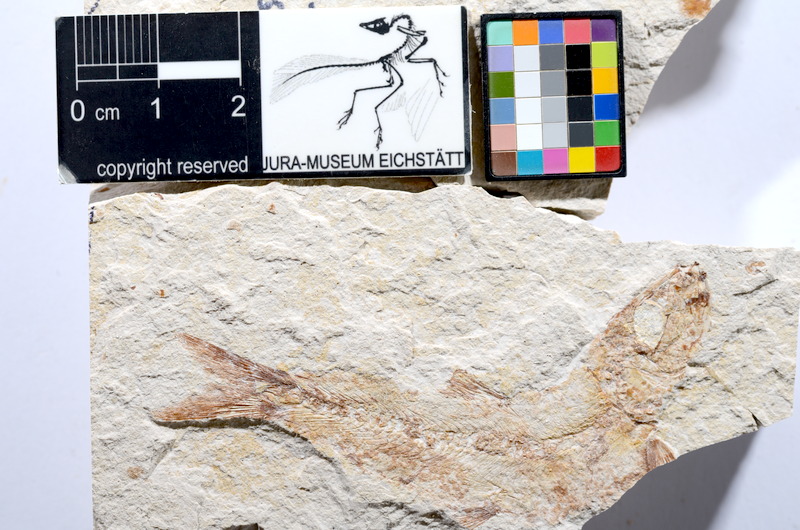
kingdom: Animalia
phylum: Chordata
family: Ascalaboidae
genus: Tharsis
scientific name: Tharsis dubius
